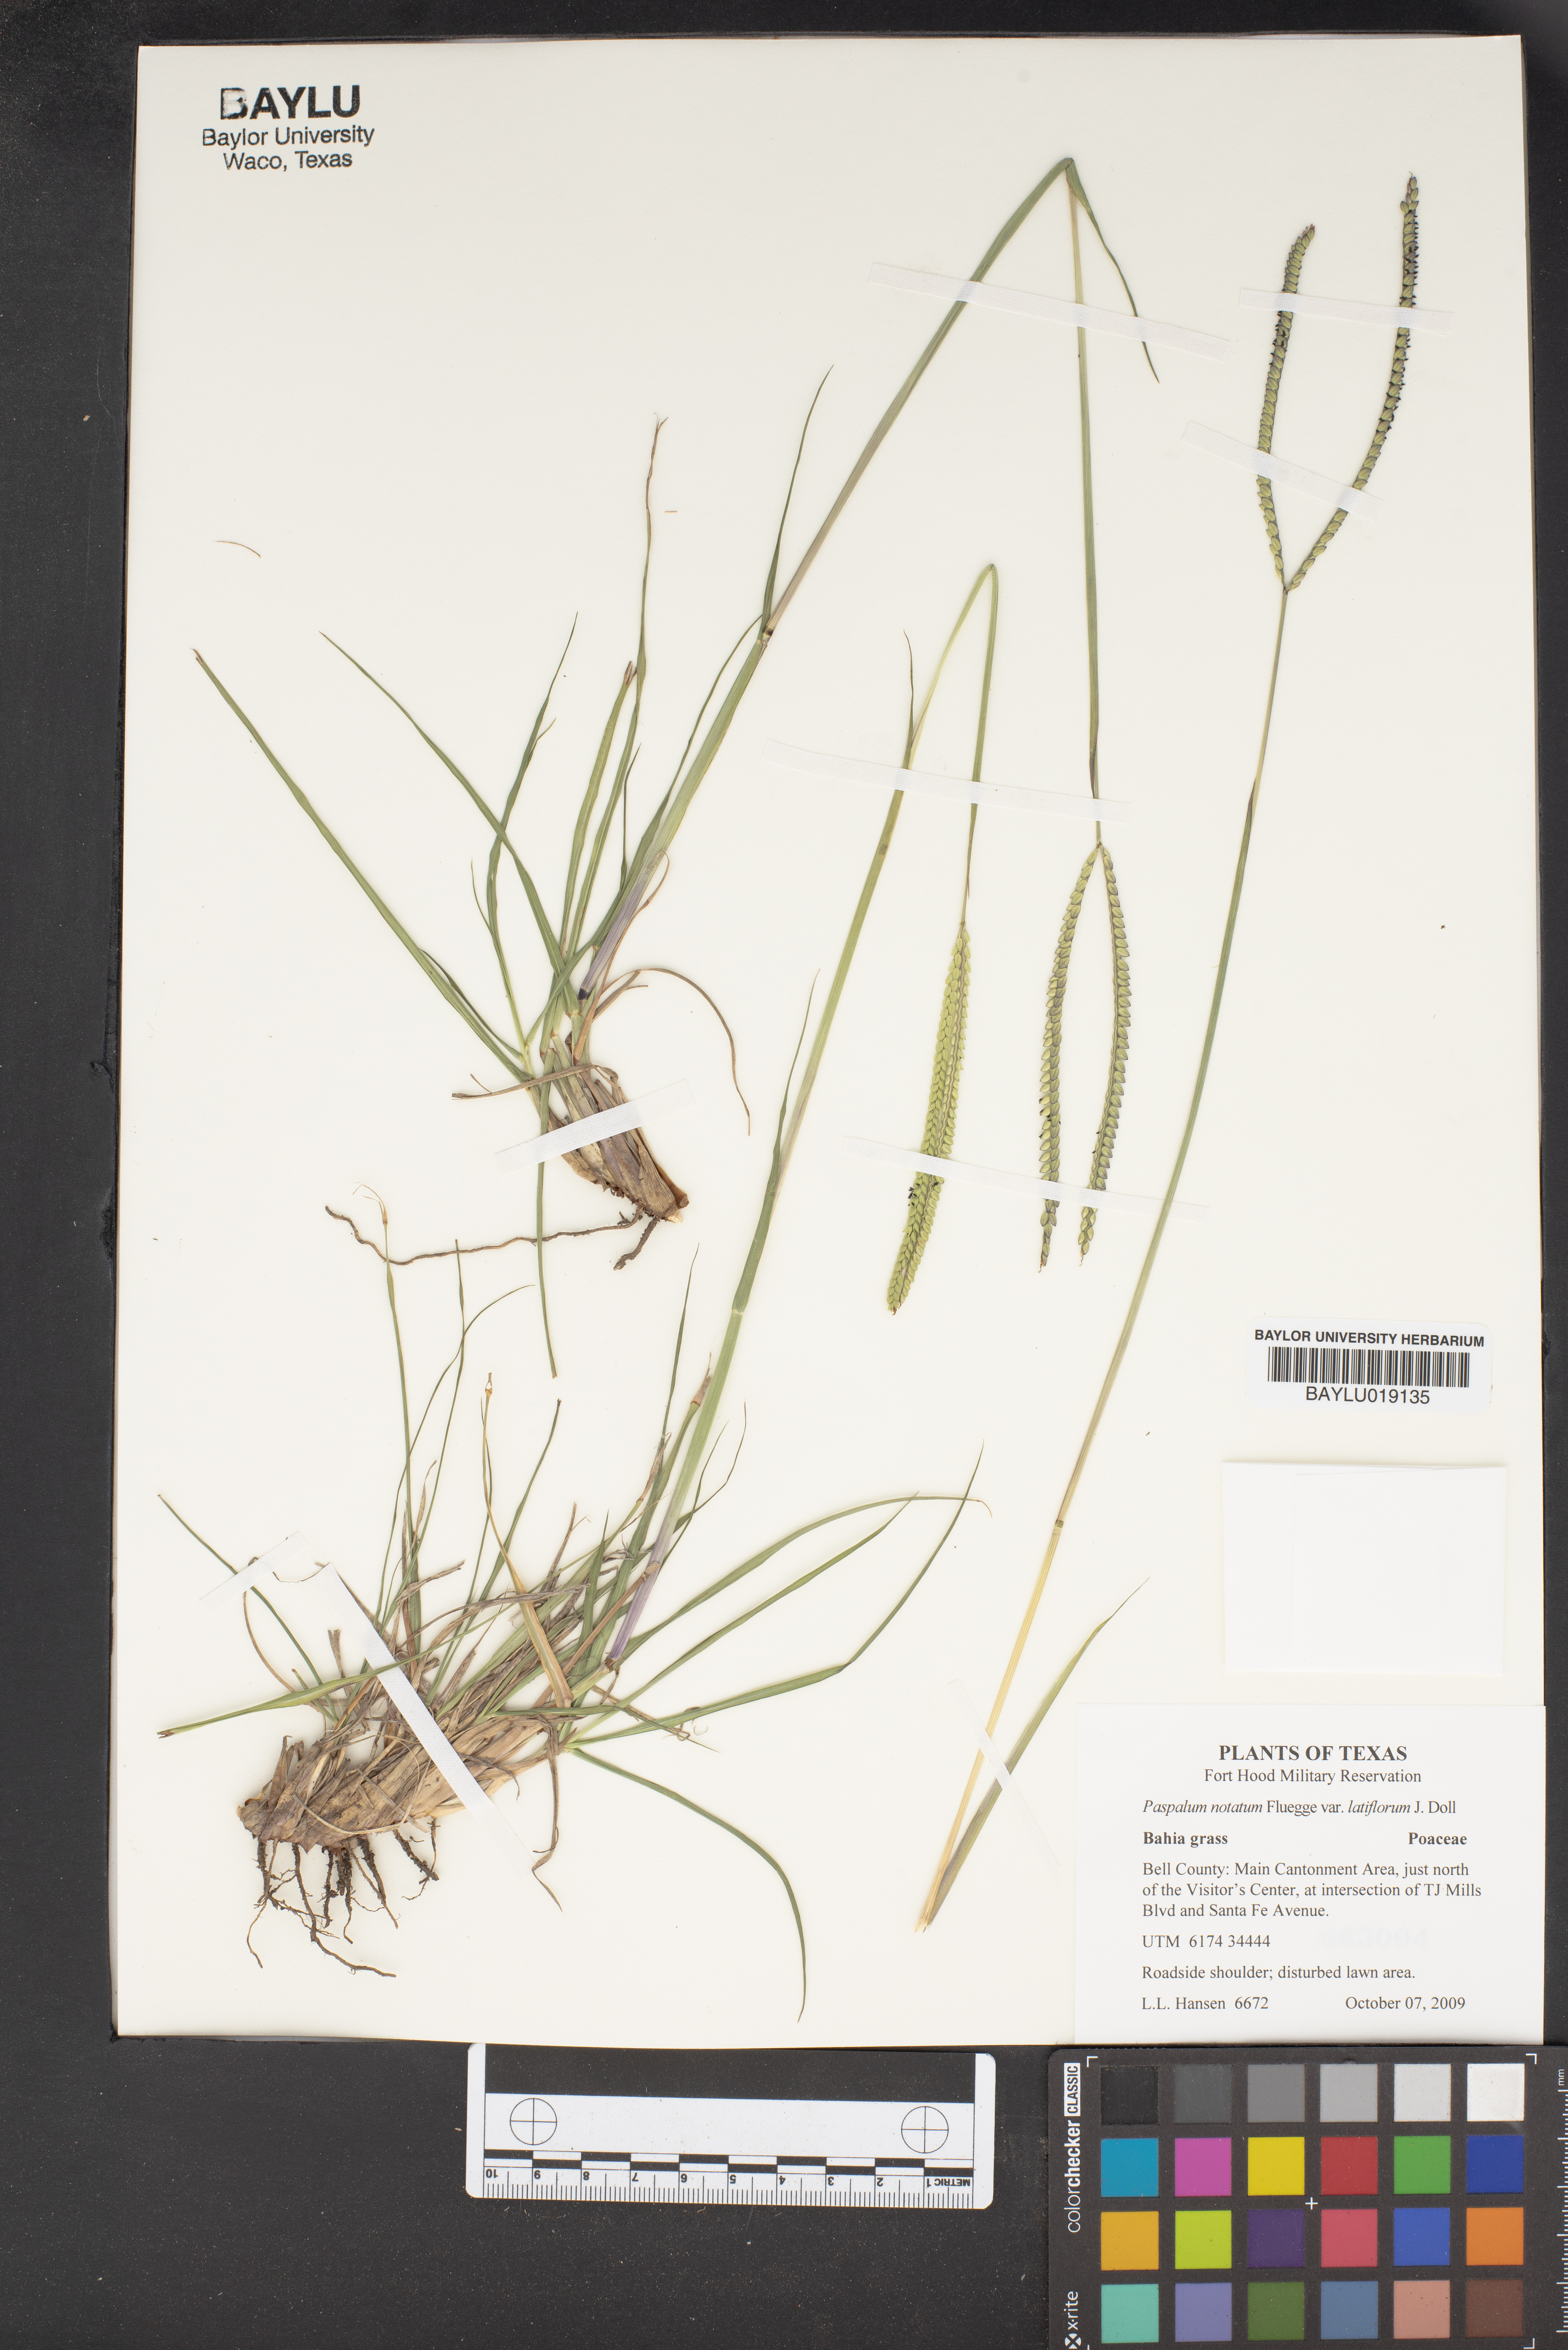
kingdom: Plantae
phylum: Tracheophyta
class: Liliopsida
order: Poales
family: Poaceae
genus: Paspalum
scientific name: Paspalum notatum
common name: Bahiagrass
